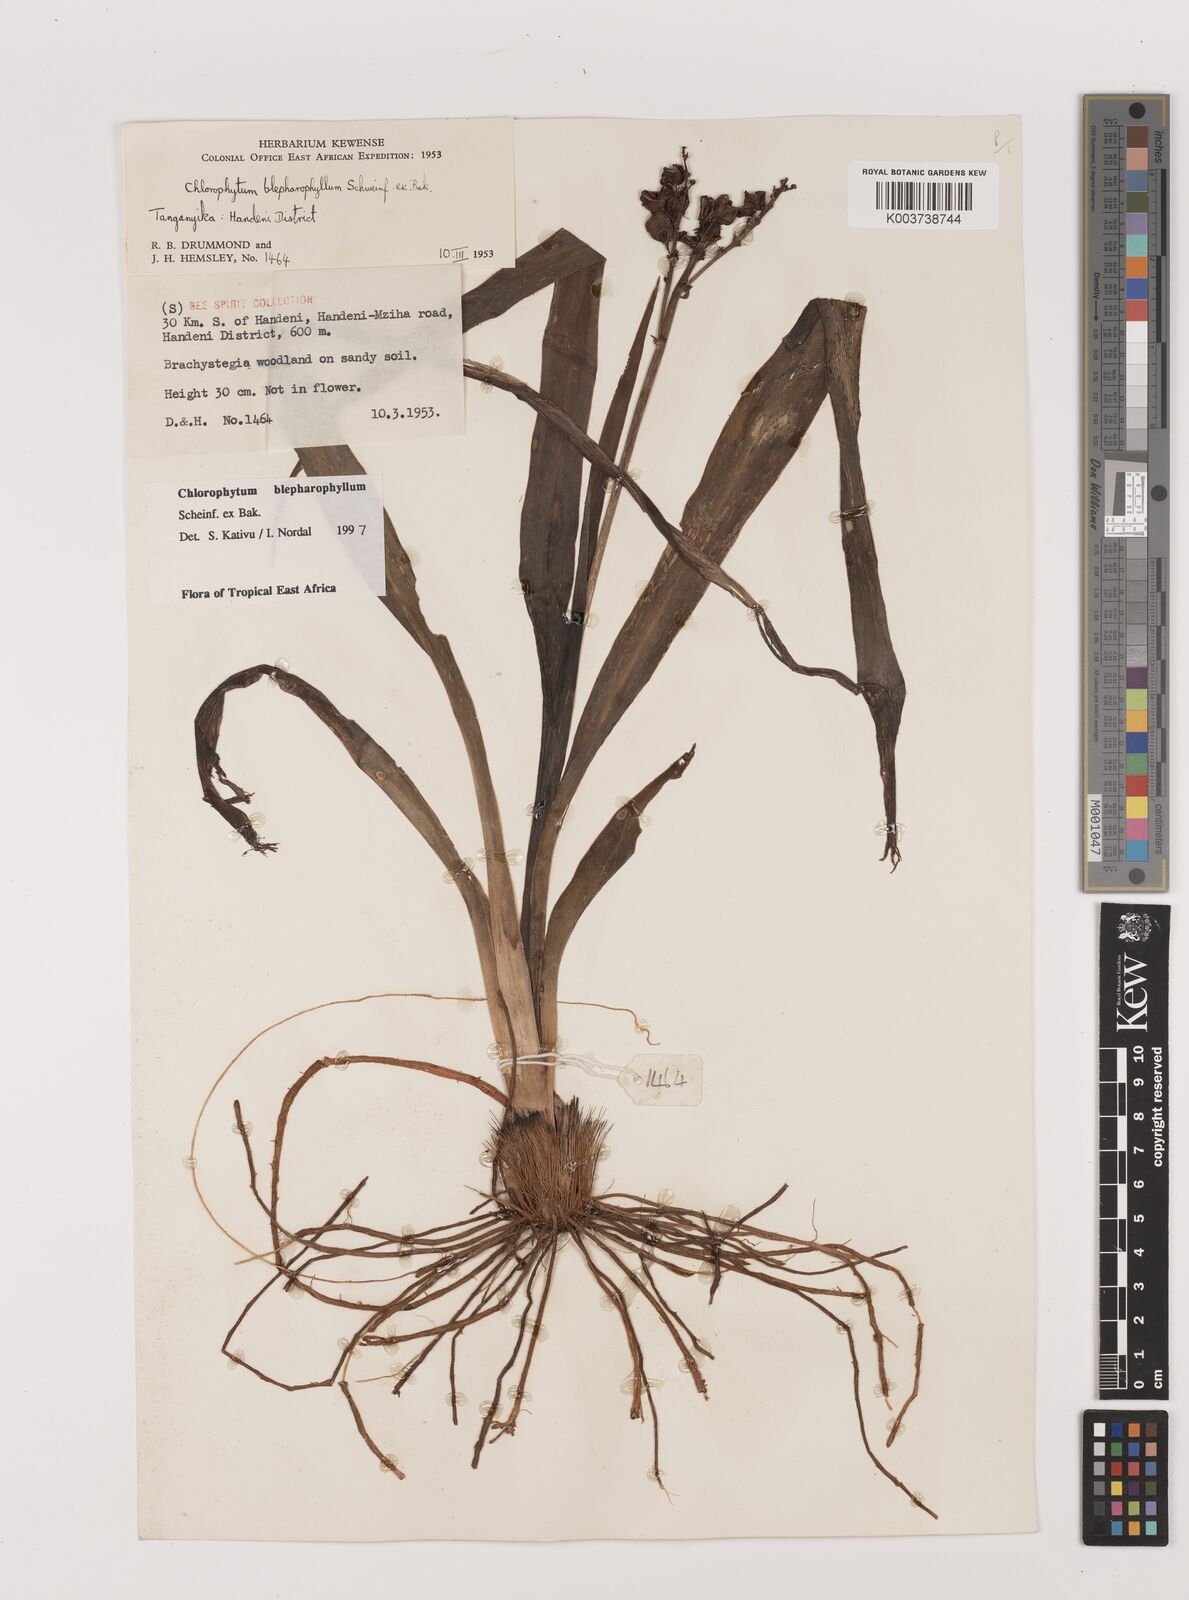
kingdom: Plantae
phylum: Tracheophyta
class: Liliopsida
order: Asparagales
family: Asparagaceae
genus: Chlorophytum
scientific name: Chlorophytum blepharophyllum
